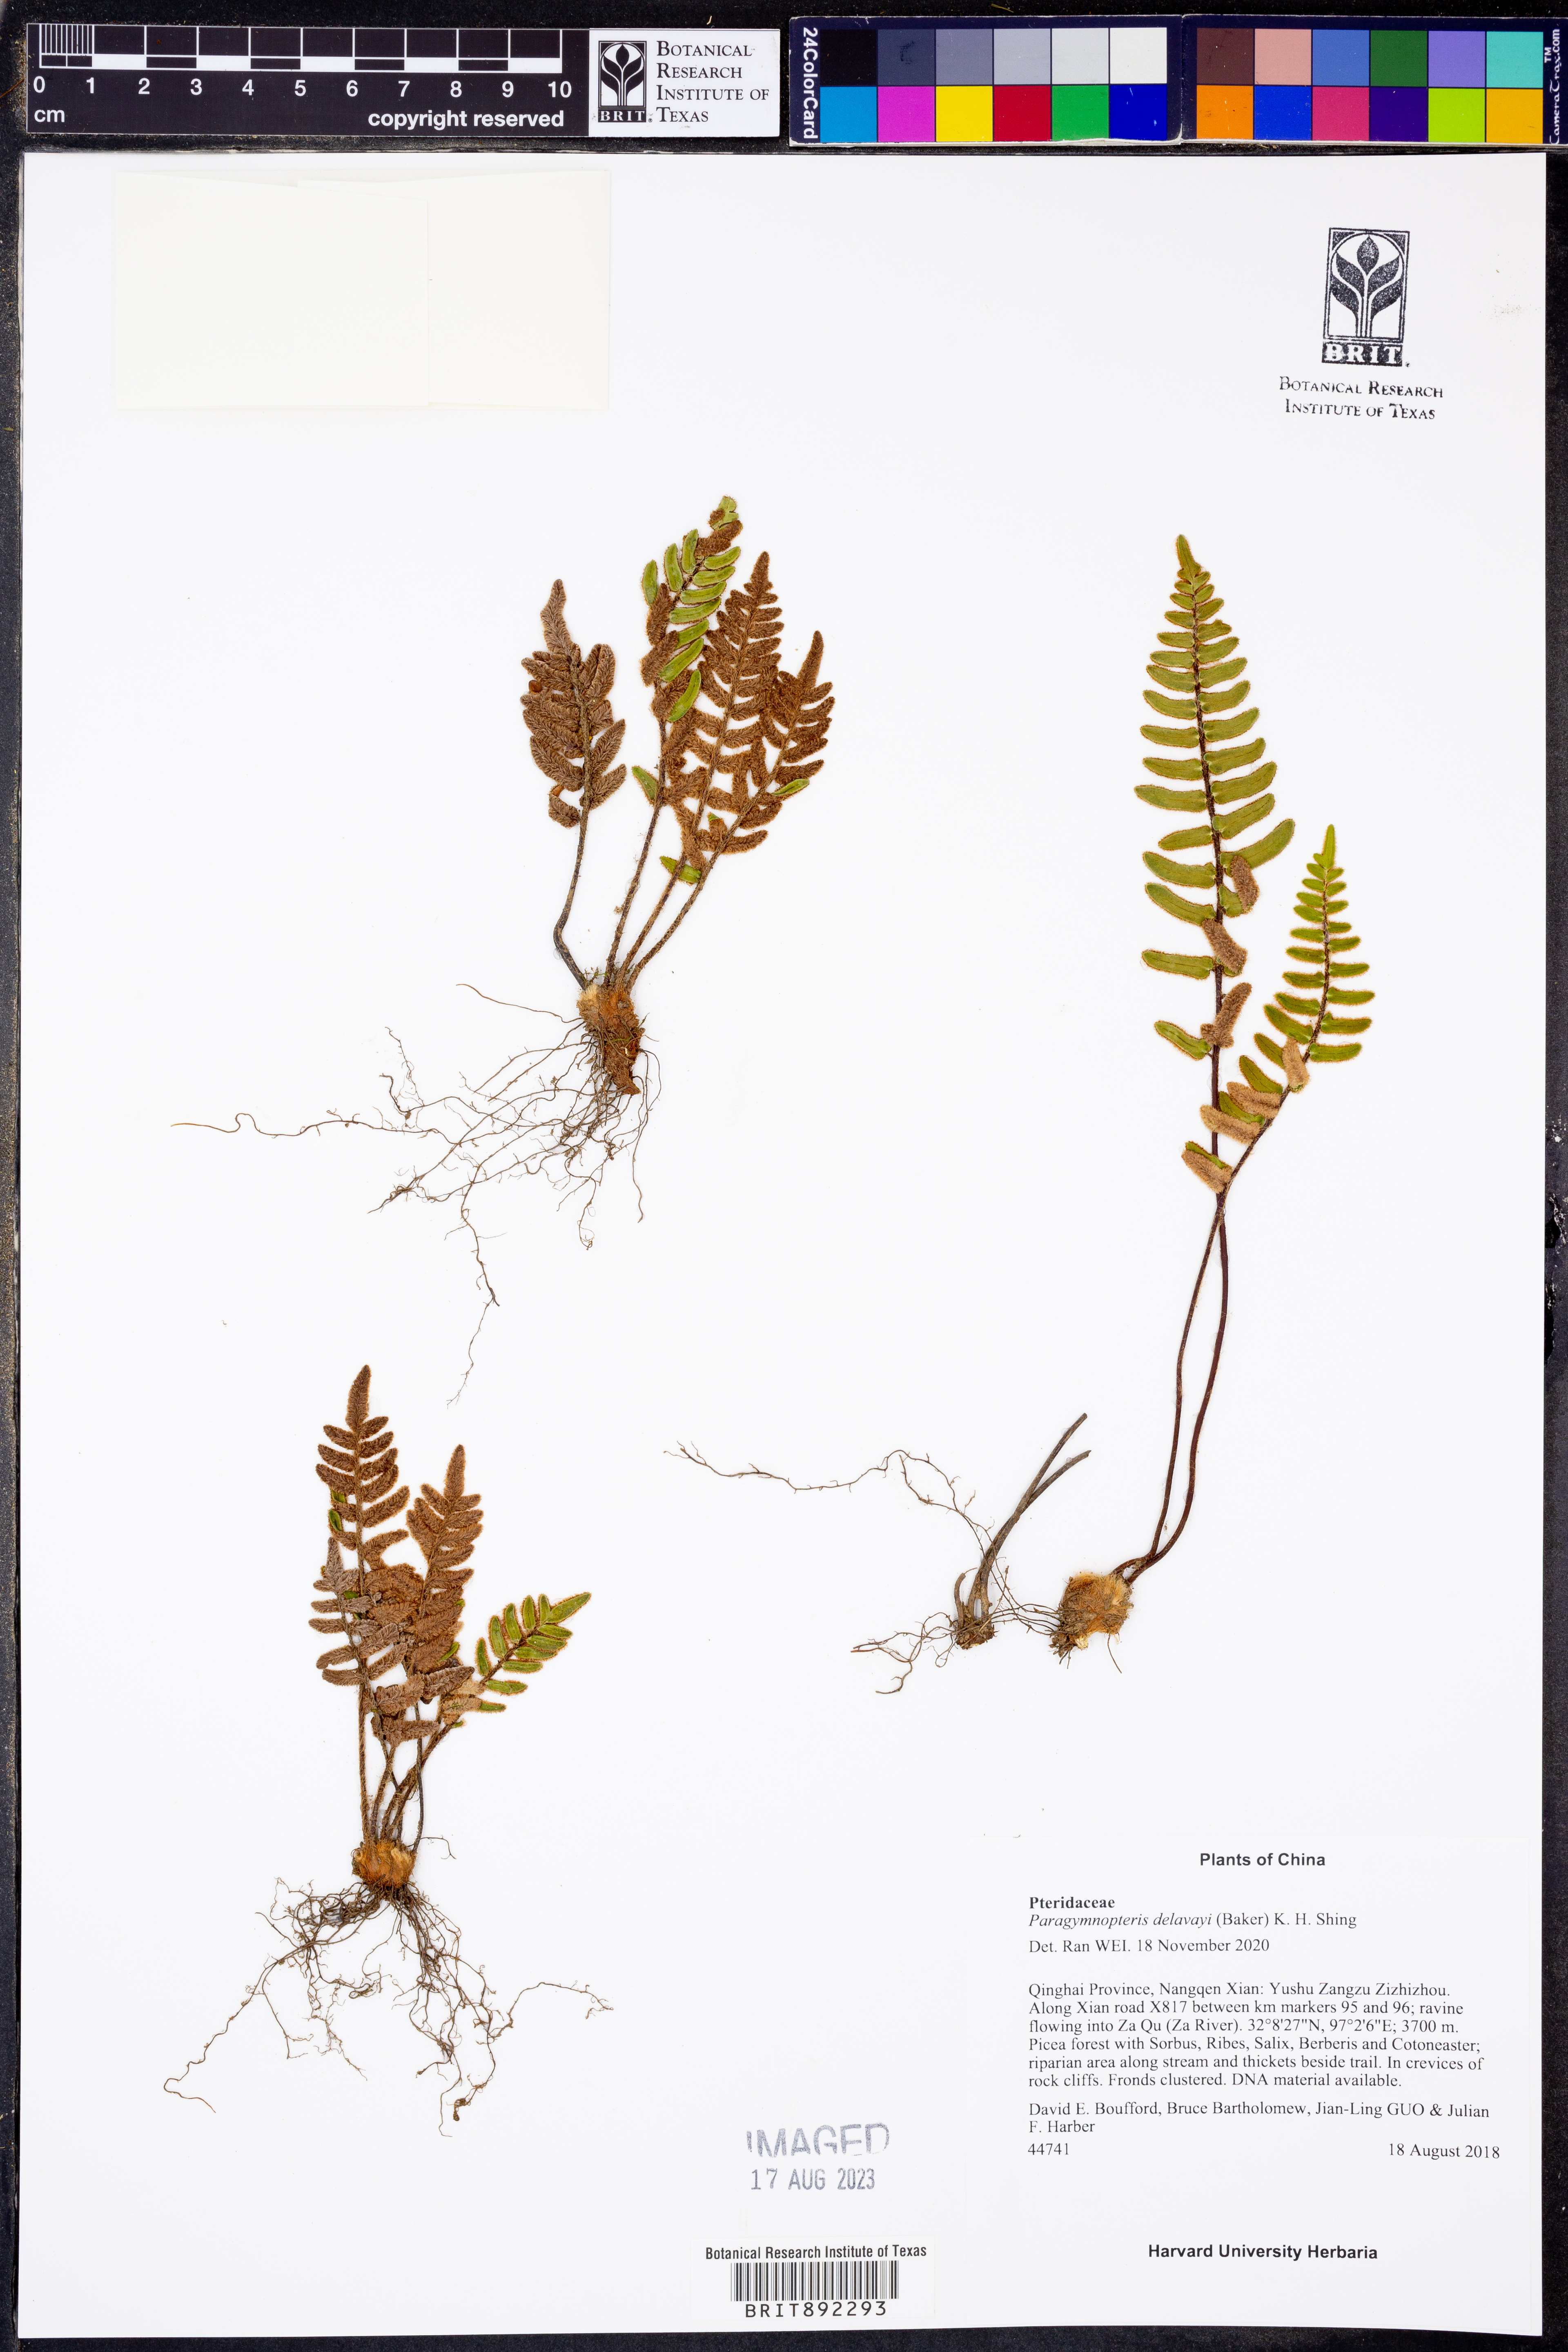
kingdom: Plantae
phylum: Tracheophyta
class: Polypodiopsida
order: Polypodiales
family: Pteridaceae
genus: Paragymnopteris
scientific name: Paragymnopteris delavayi
